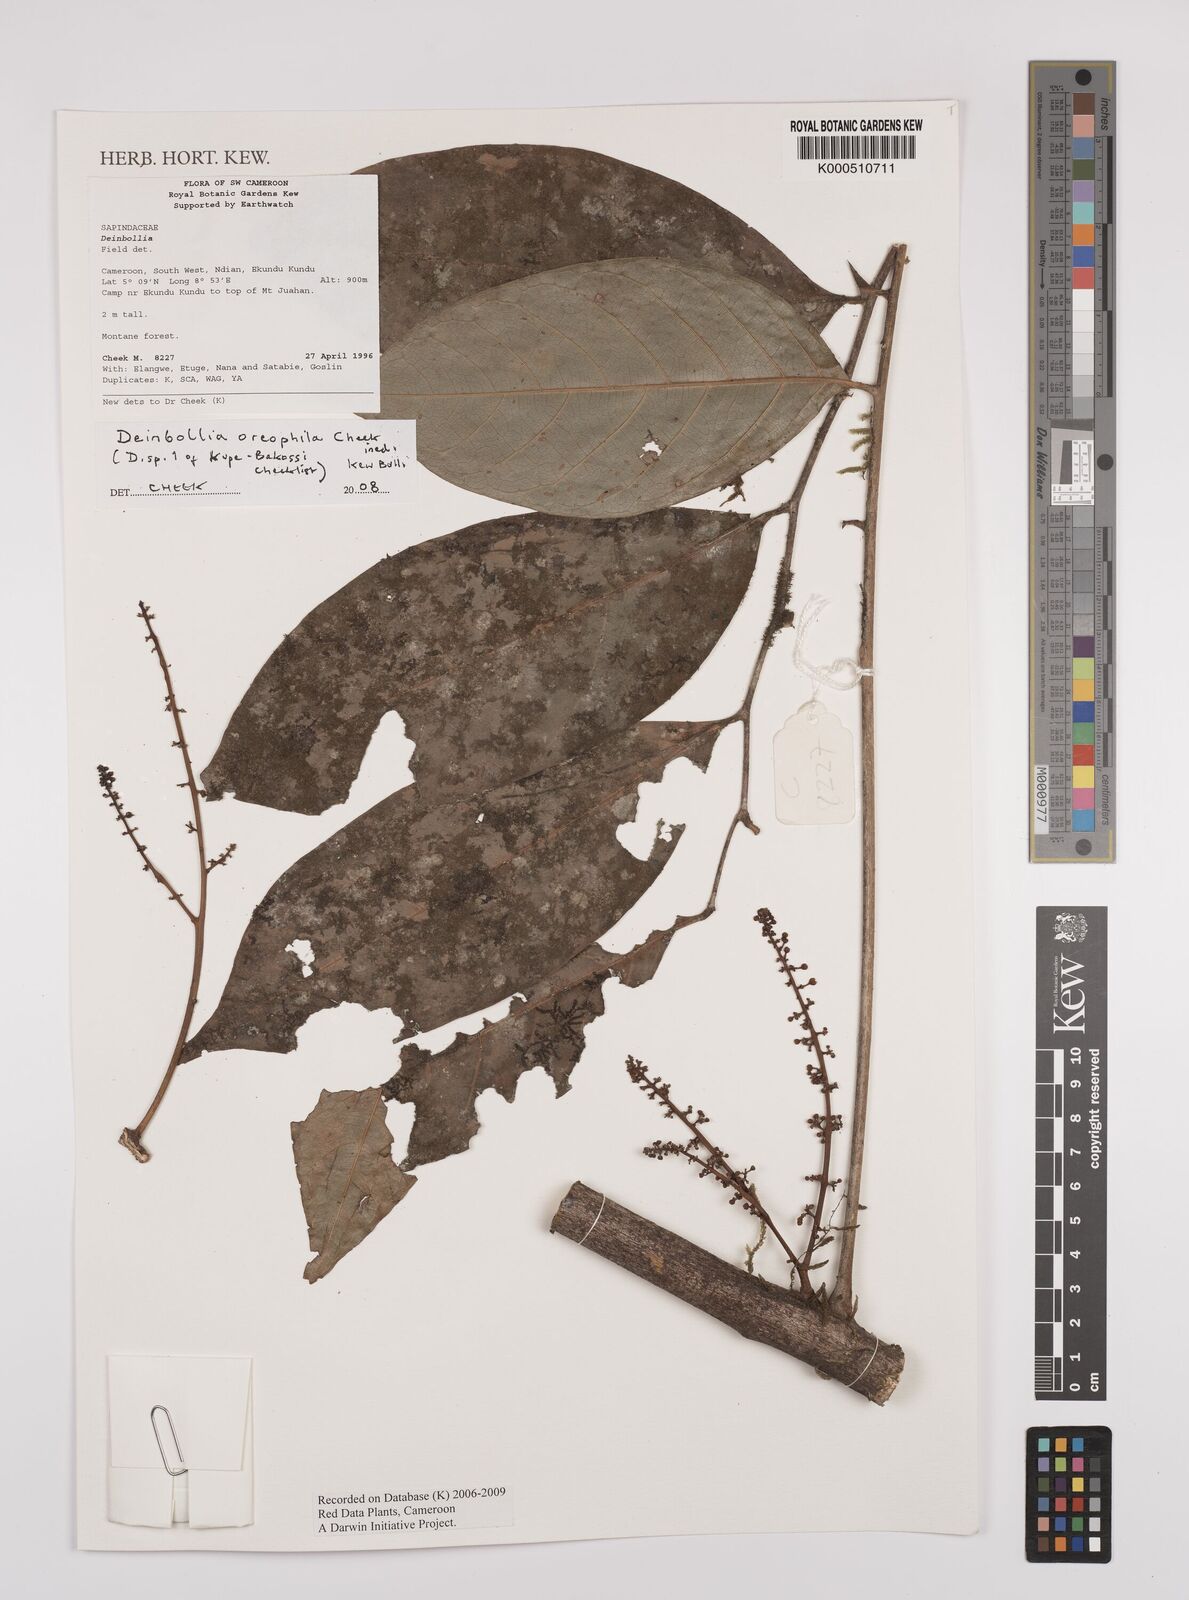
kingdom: Plantae
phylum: Tracheophyta
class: Magnoliopsida
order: Sapindales
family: Sapindaceae
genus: Deinbollia
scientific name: Deinbollia oreophila
